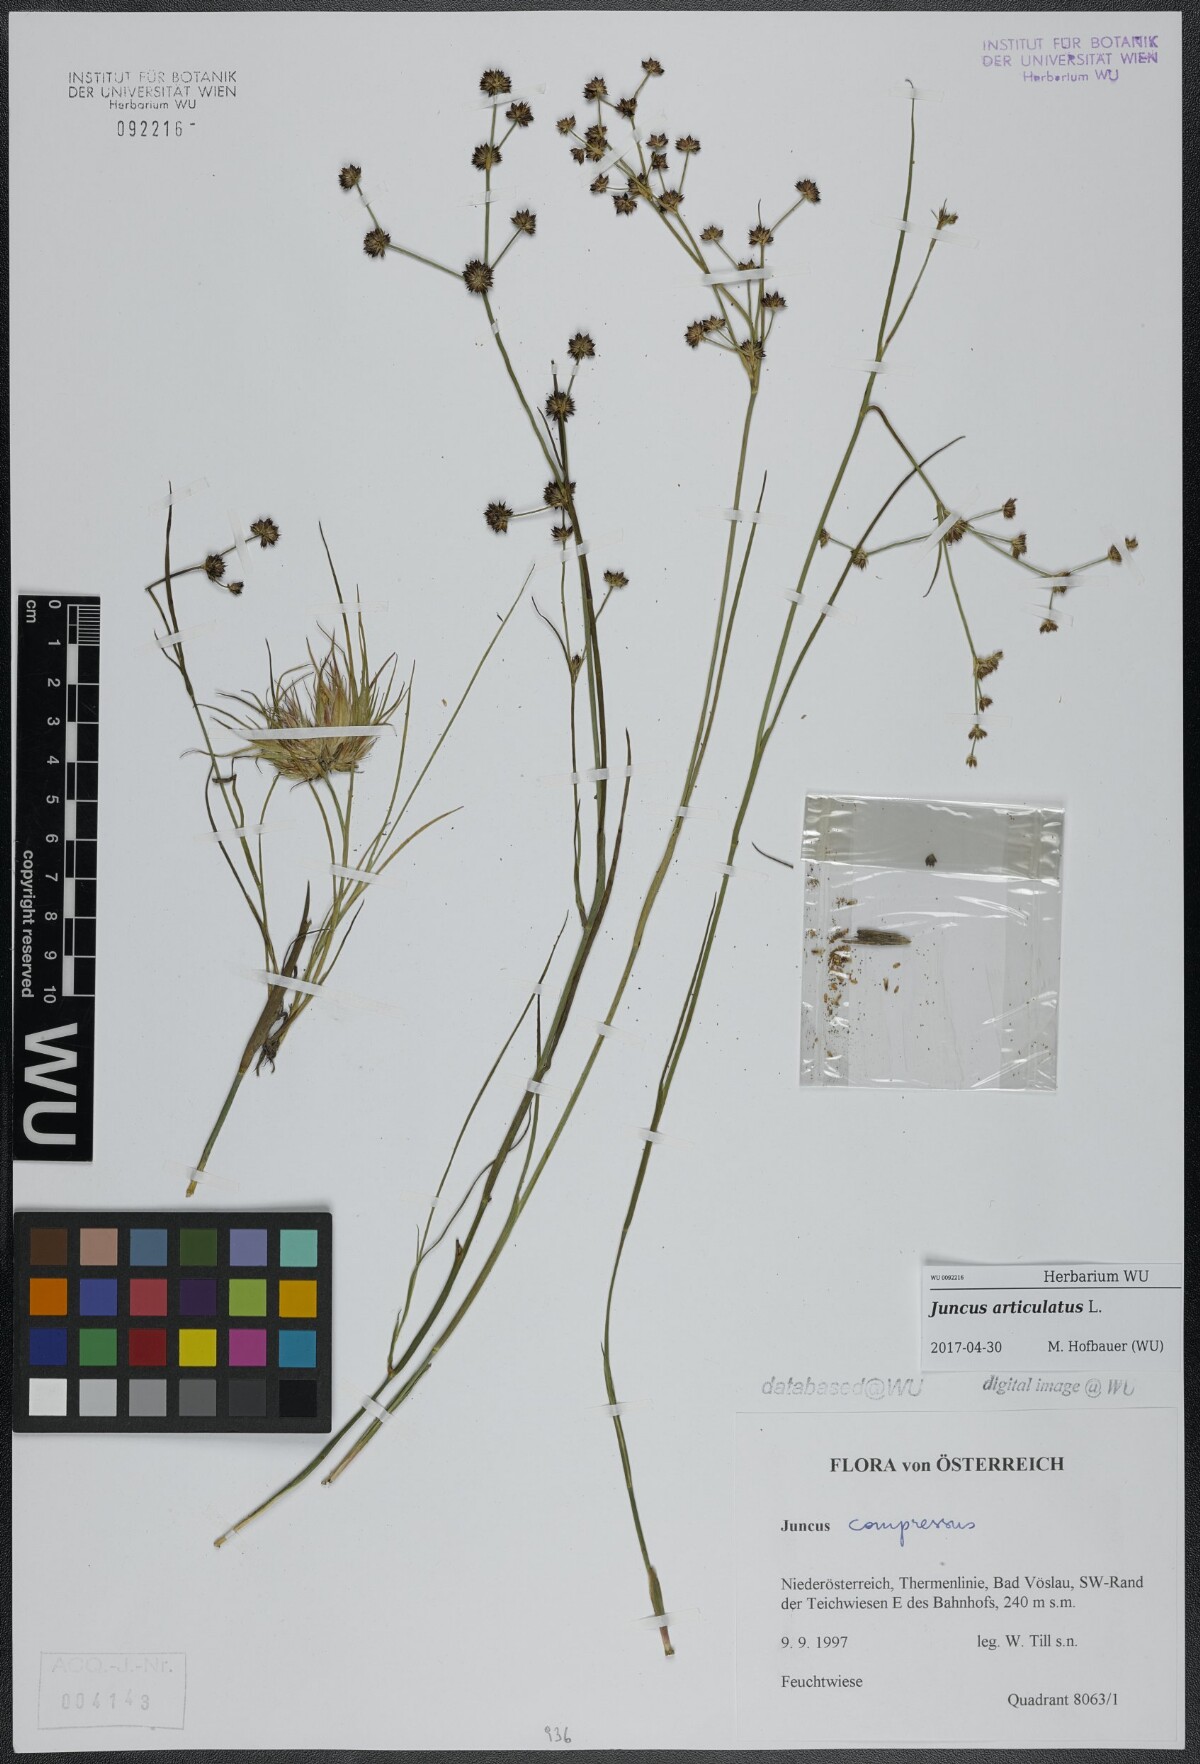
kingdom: Plantae
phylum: Tracheophyta
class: Liliopsida
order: Poales
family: Juncaceae
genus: Juncus
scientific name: Juncus articulatus
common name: Jointed rush
